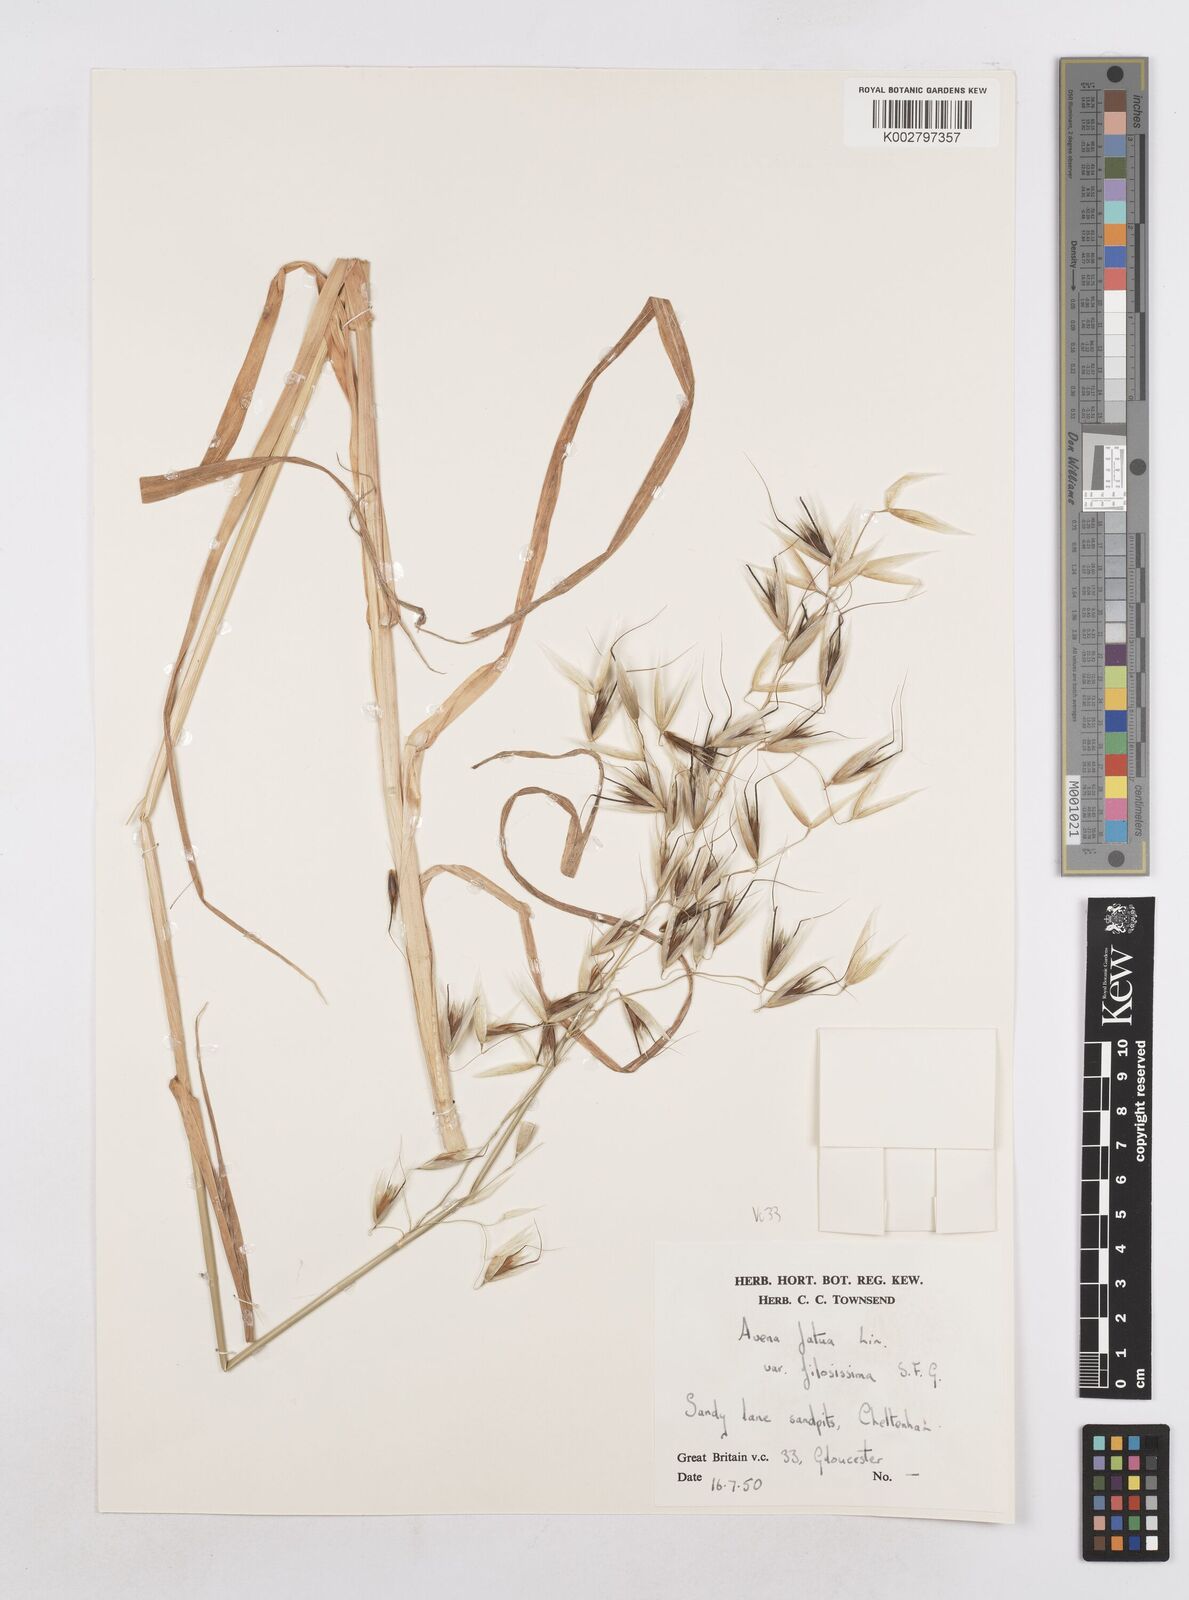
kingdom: Plantae
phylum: Tracheophyta
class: Liliopsida
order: Poales
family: Poaceae
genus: Avena
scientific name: Avena fatua
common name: Wild oat
